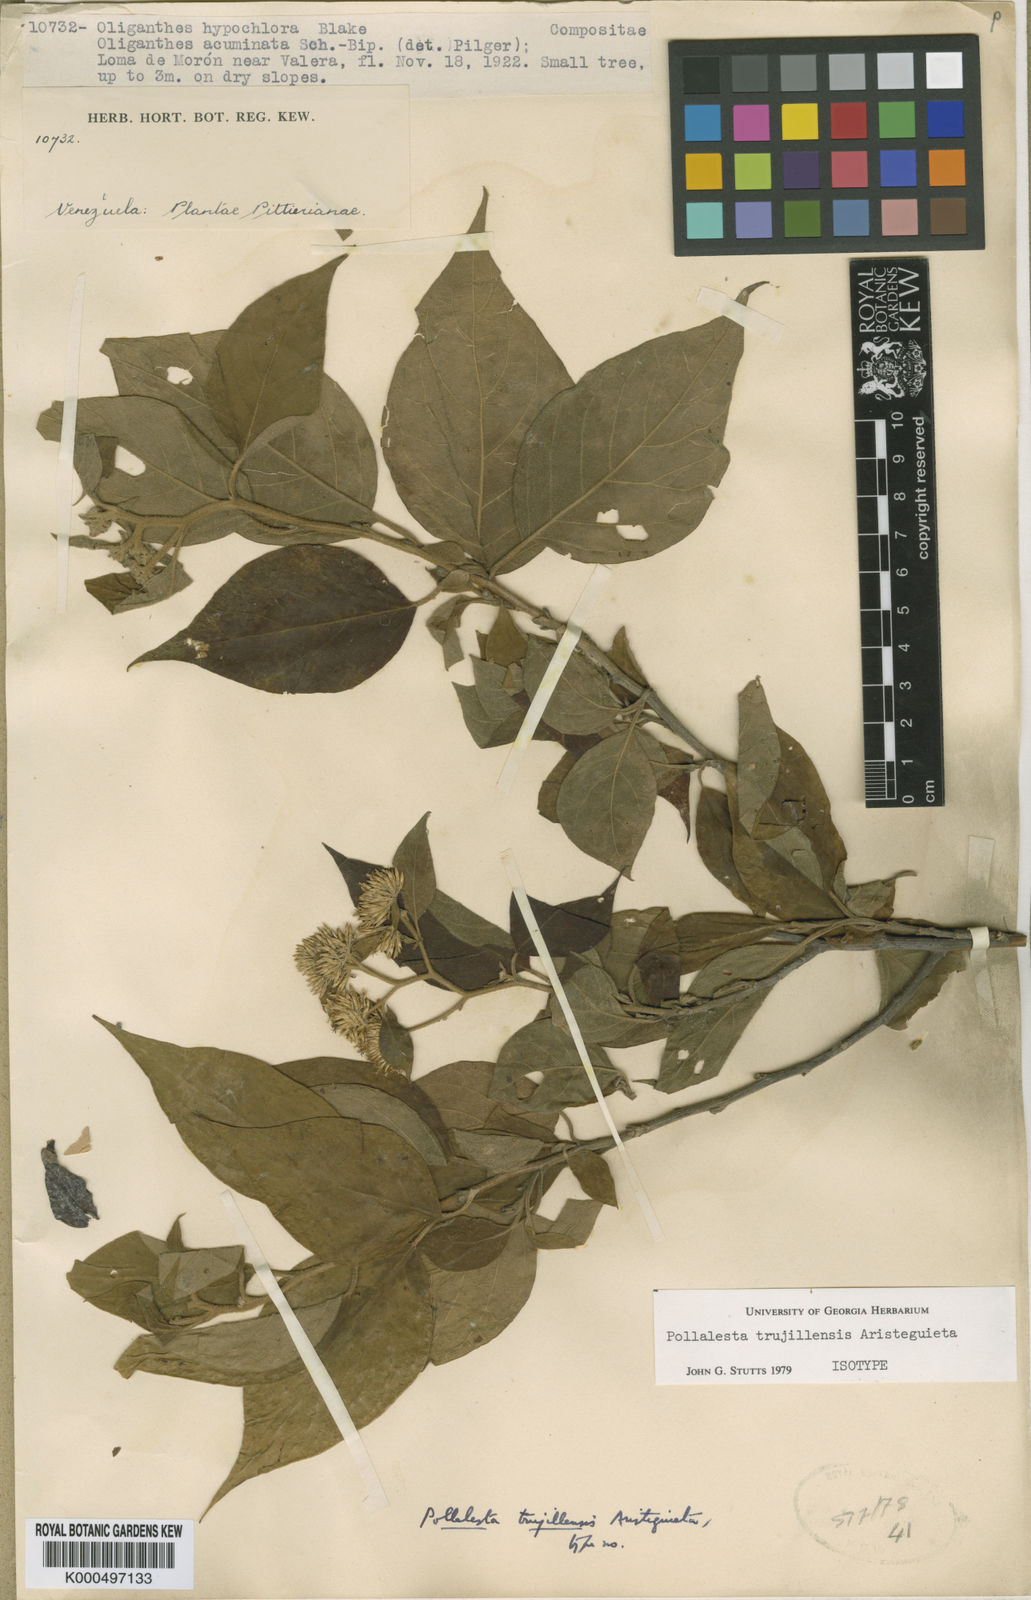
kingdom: Plantae
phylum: Tracheophyta
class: Magnoliopsida
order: Asterales
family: Asteraceae
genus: Piptocoma
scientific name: Piptocoma trujillensis
